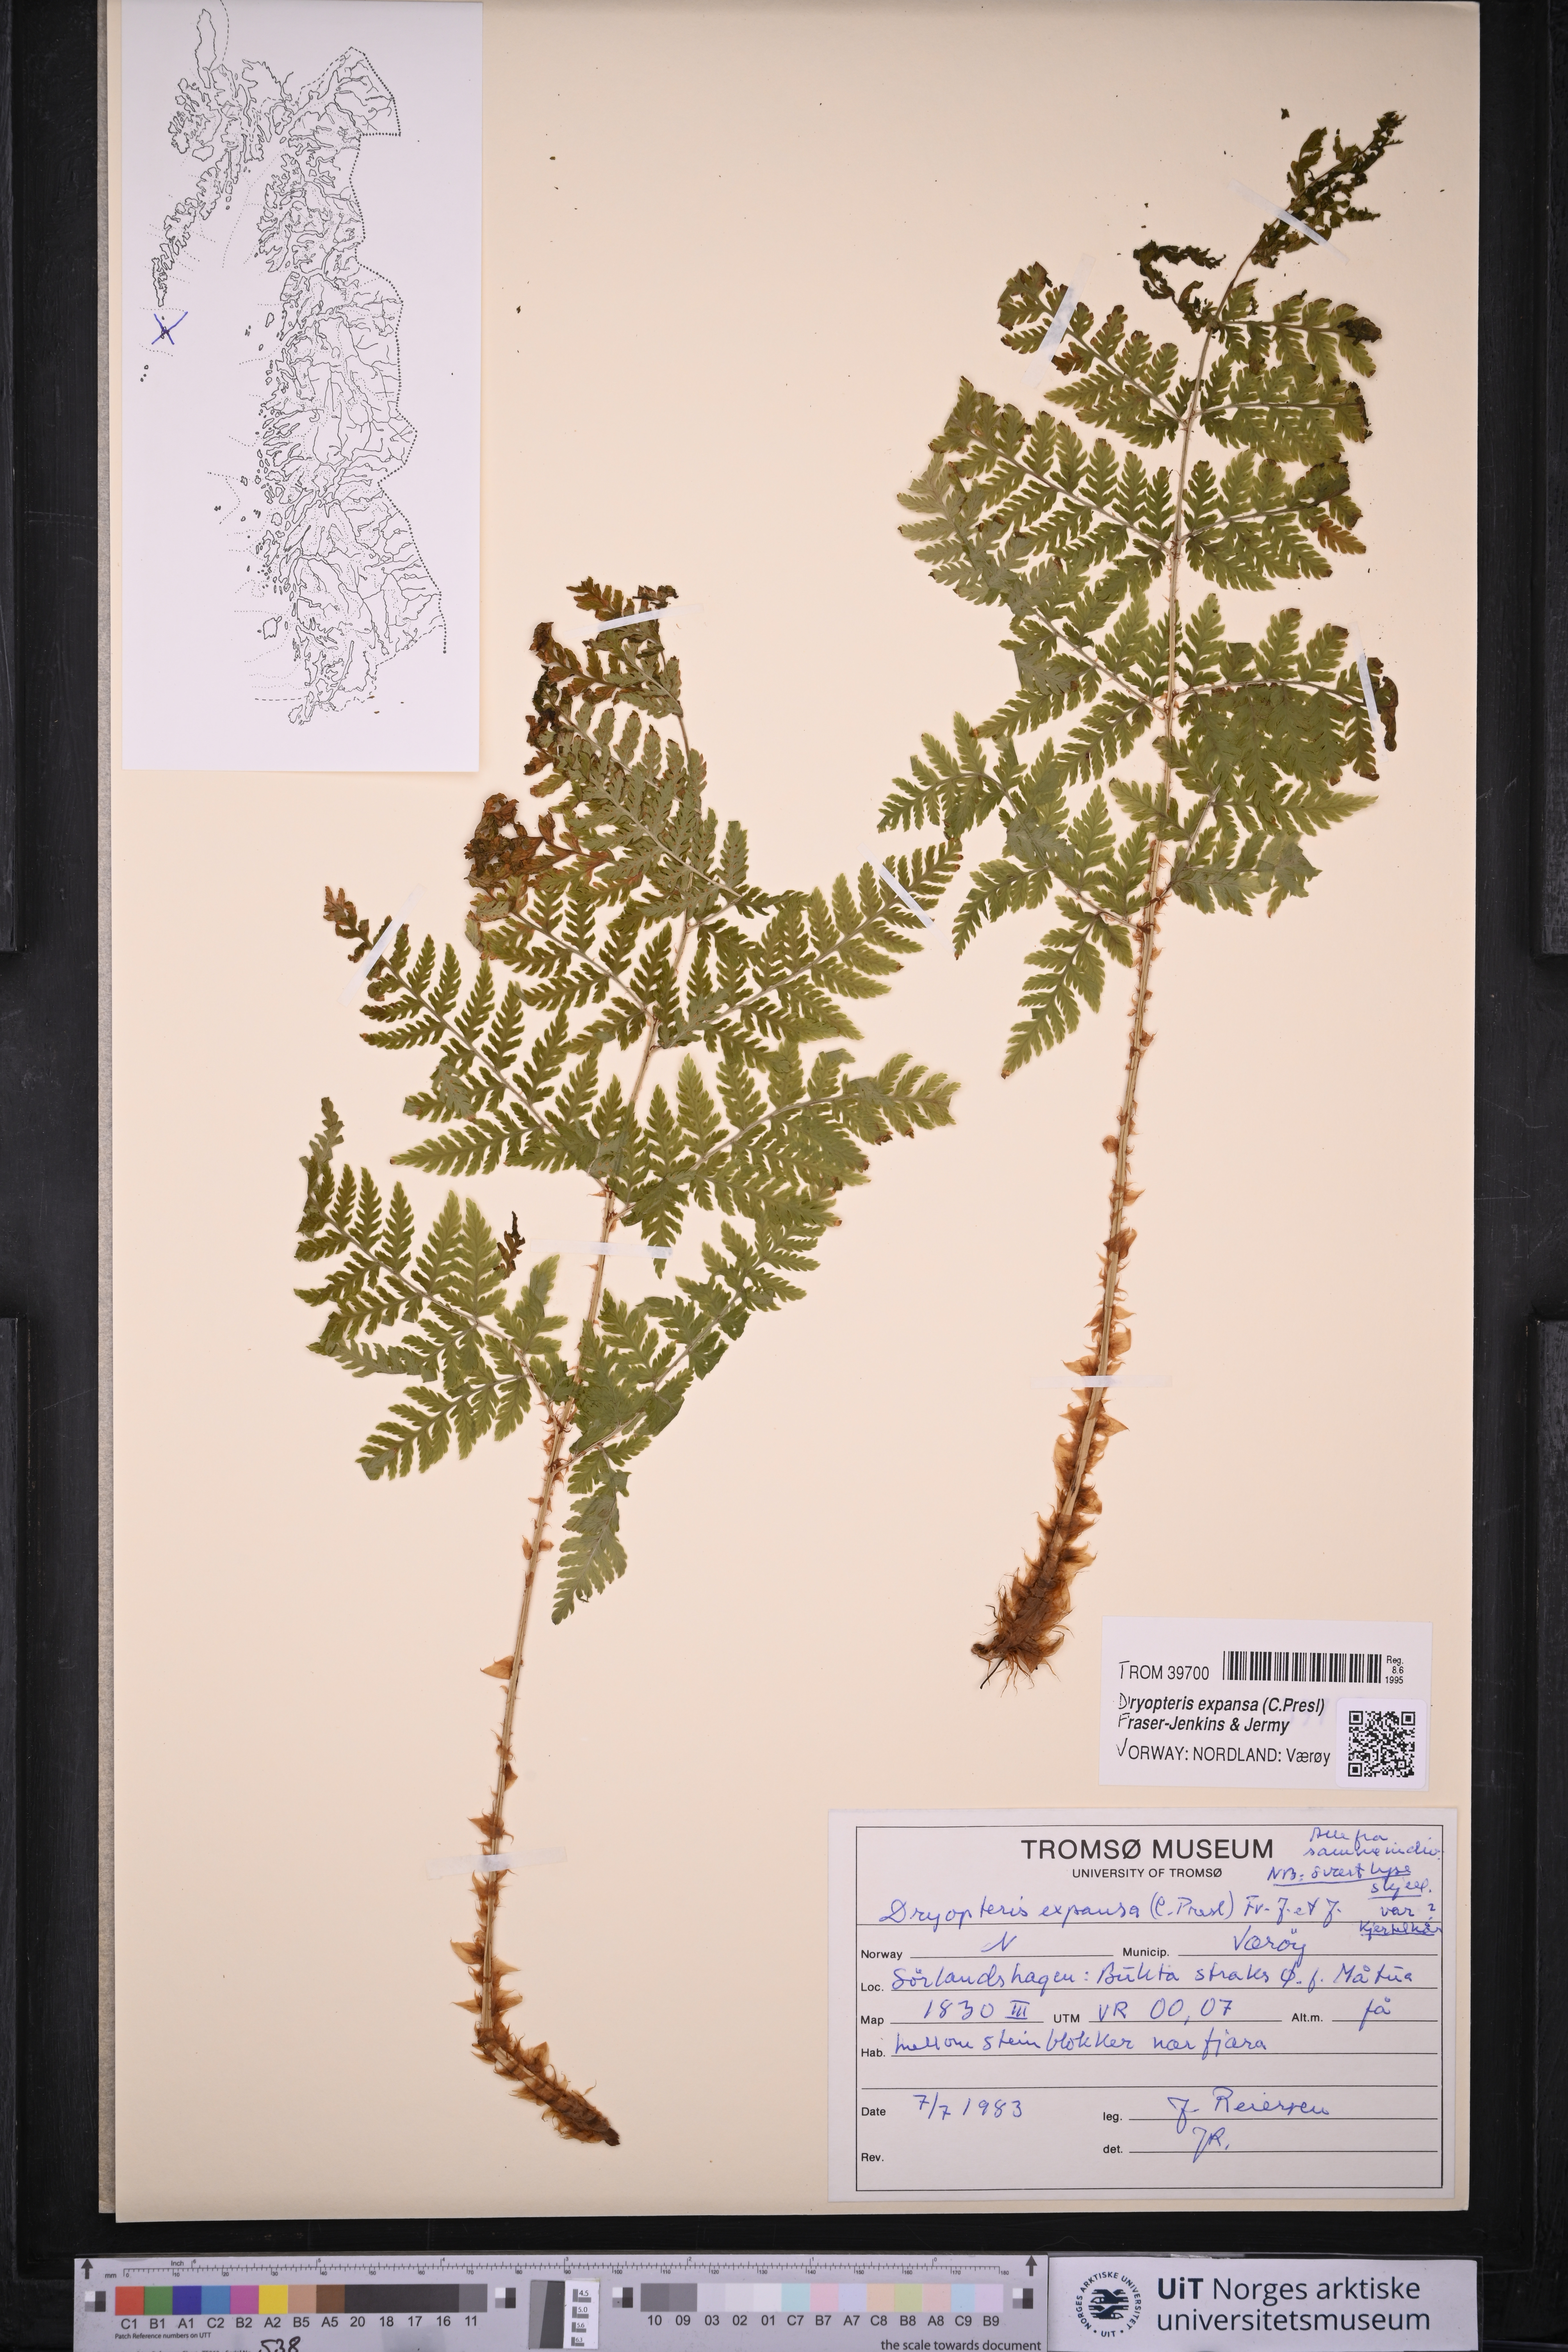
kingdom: Plantae
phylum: Tracheophyta
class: Polypodiopsida
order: Polypodiales
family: Dryopteridaceae
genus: Dryopteris
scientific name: Dryopteris expansa
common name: Northern buckler fern
